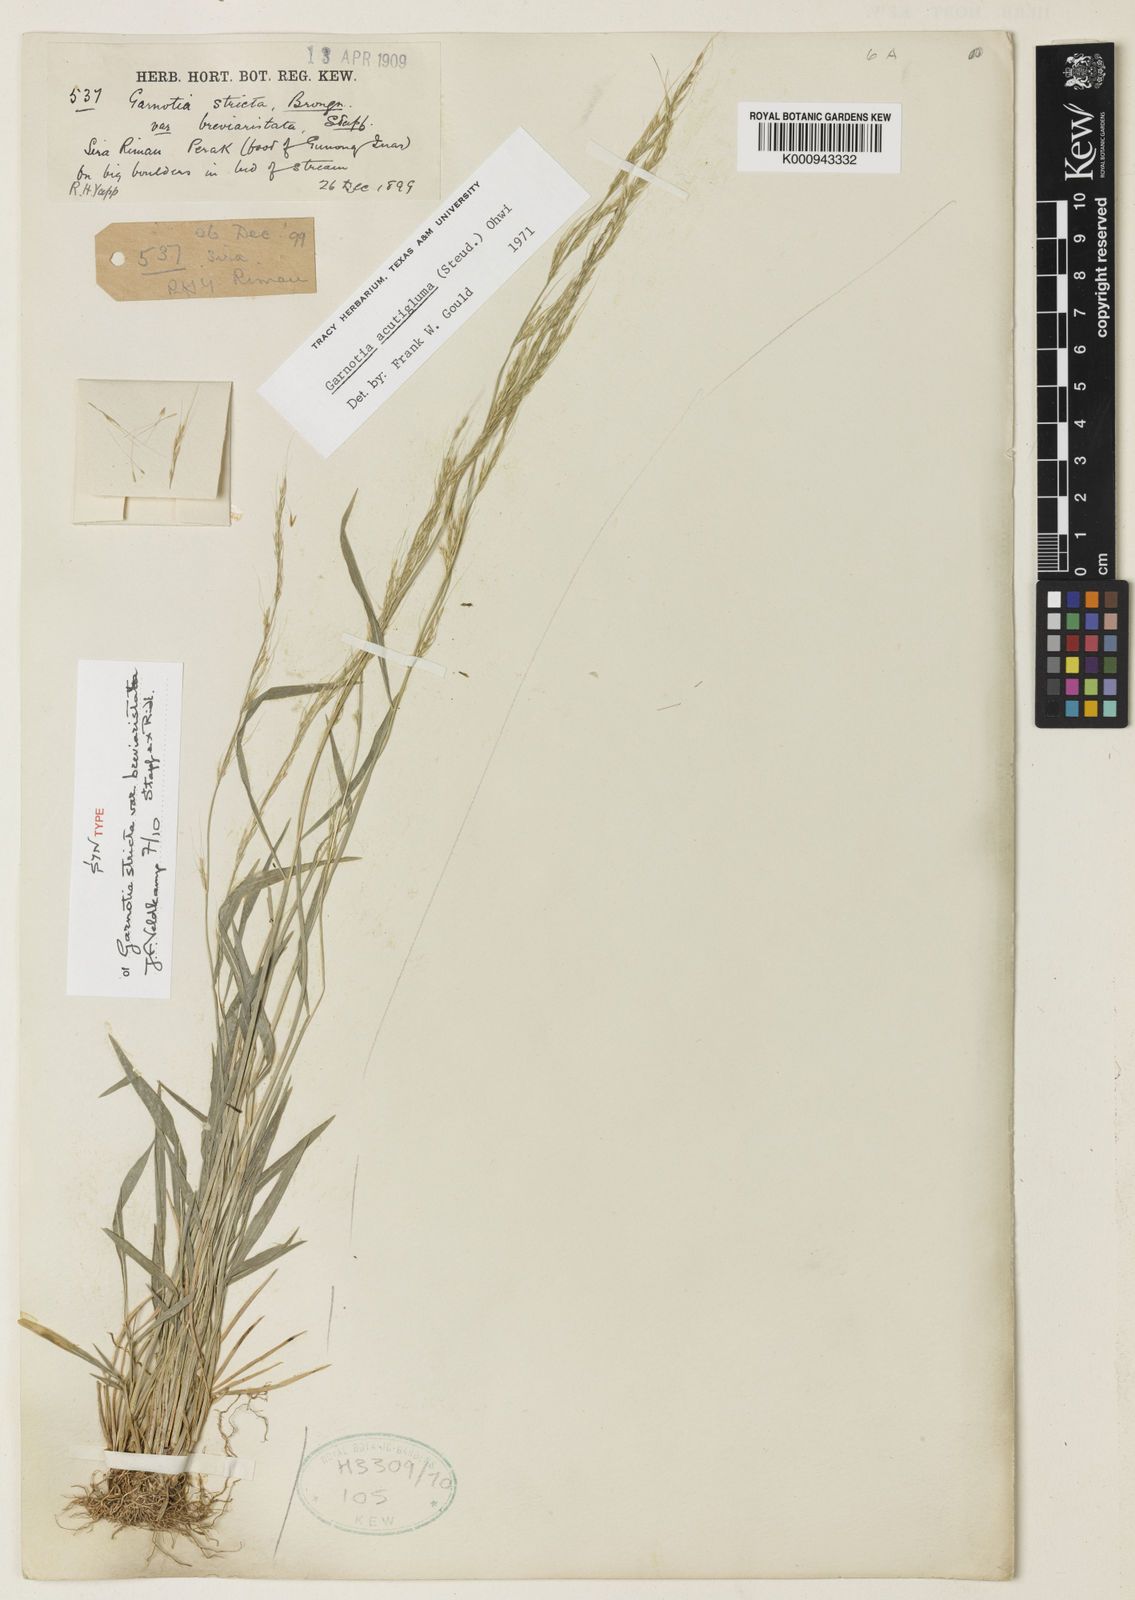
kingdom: Plantae
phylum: Tracheophyta
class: Liliopsida
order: Poales
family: Poaceae
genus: Garnotia
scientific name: Garnotia tenella
